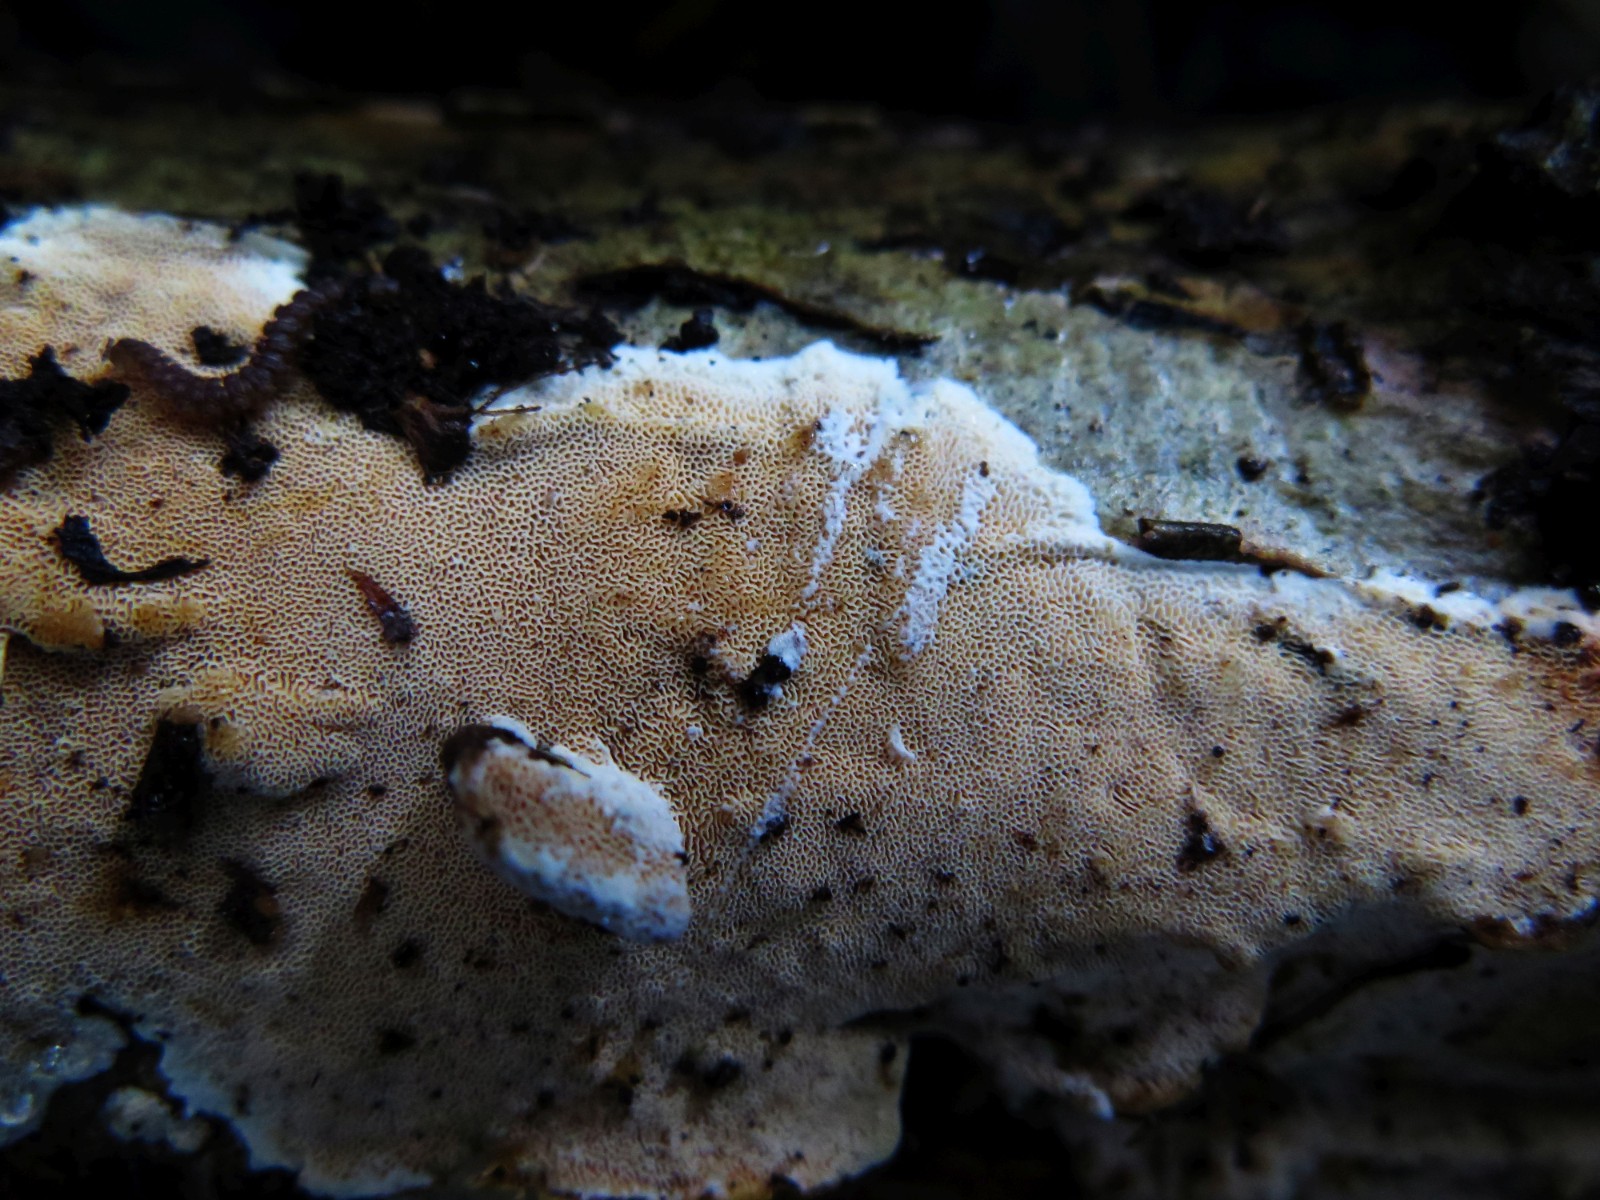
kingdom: Fungi
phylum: Basidiomycota
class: Agaricomycetes
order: Polyporales
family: Steccherinaceae
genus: Junghuhnia
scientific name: Junghuhnia nitida
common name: almindelig skønporesvamp
